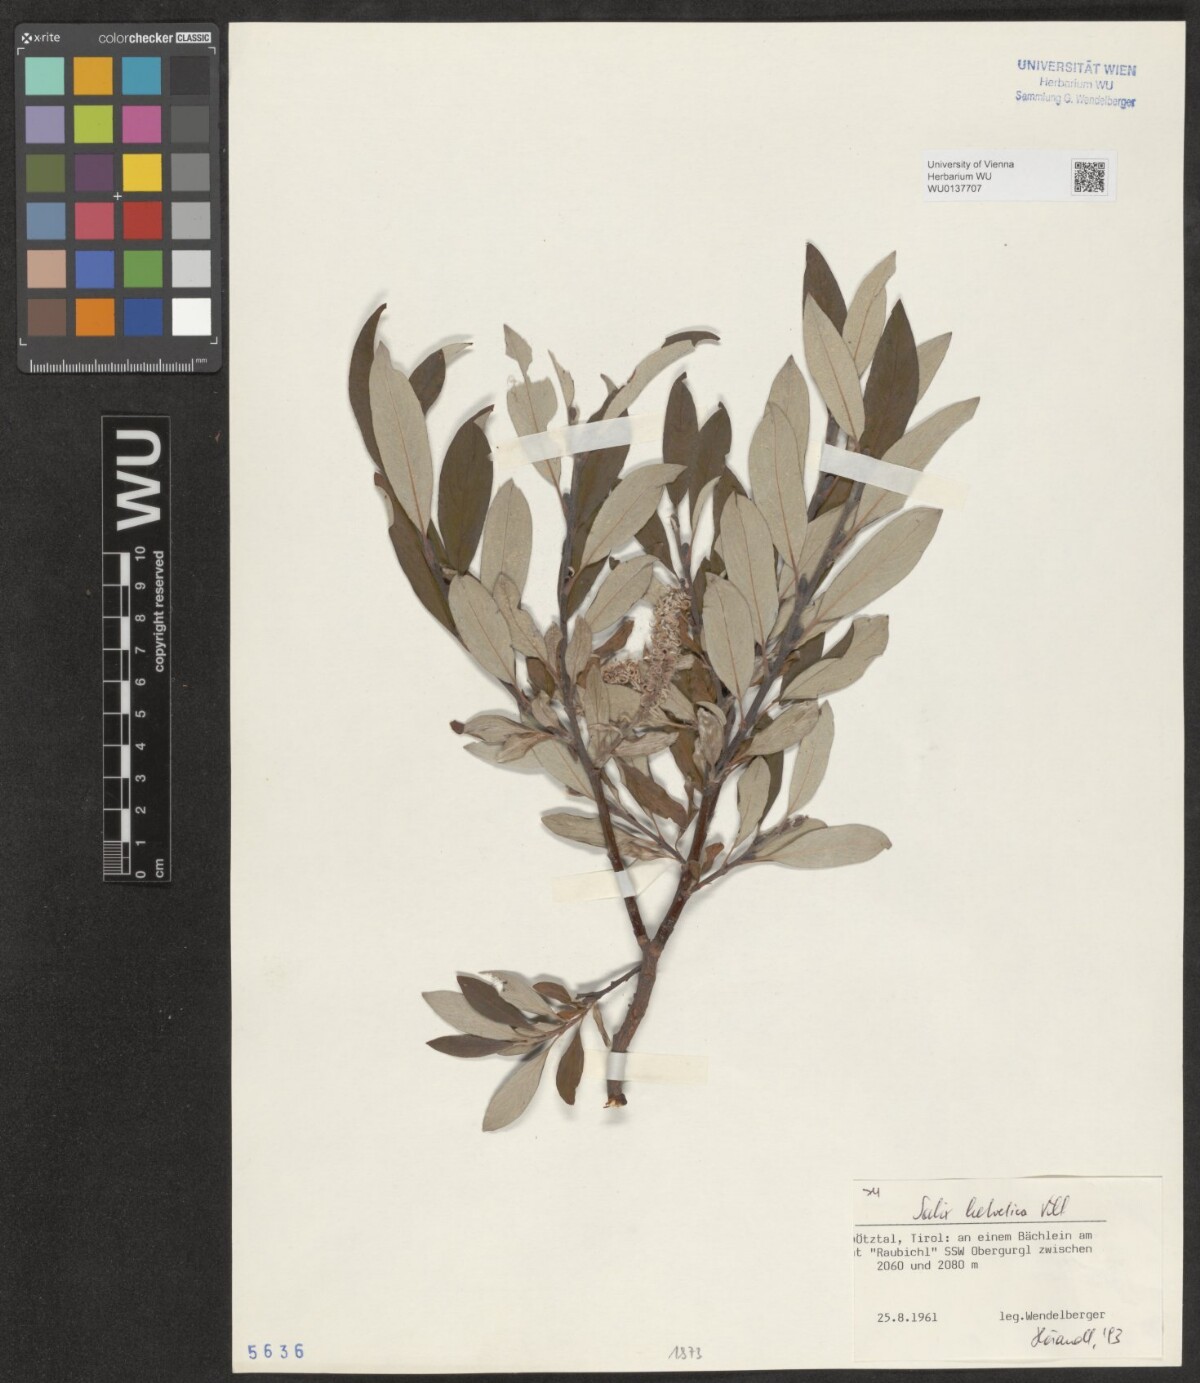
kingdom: Plantae
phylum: Tracheophyta
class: Magnoliopsida
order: Malpighiales
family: Salicaceae
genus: Salix
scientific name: Salix helvetica
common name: Swiss willow
